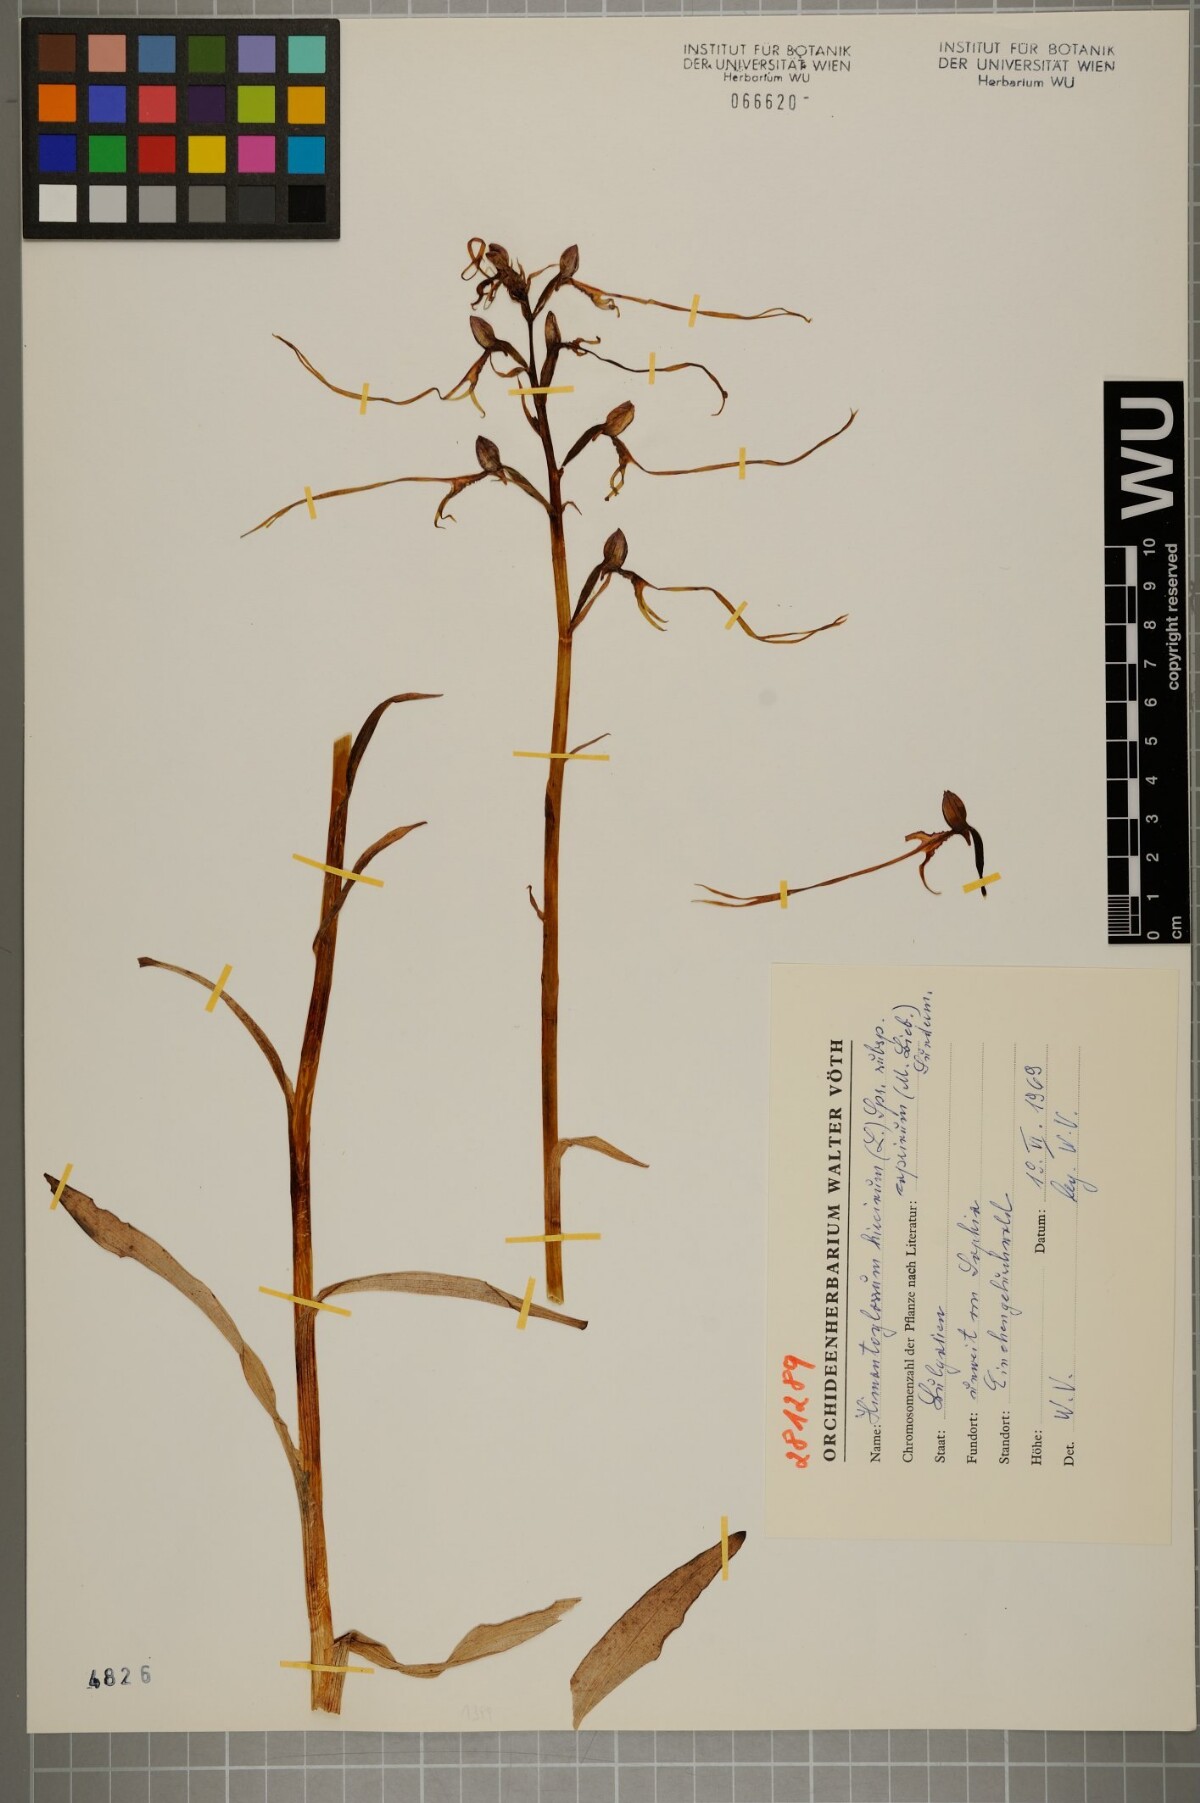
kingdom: Plantae
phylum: Tracheophyta
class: Liliopsida
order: Asparagales
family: Orchidaceae
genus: Himantoglossum
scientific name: Himantoglossum hircinum
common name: Lizard orchid
